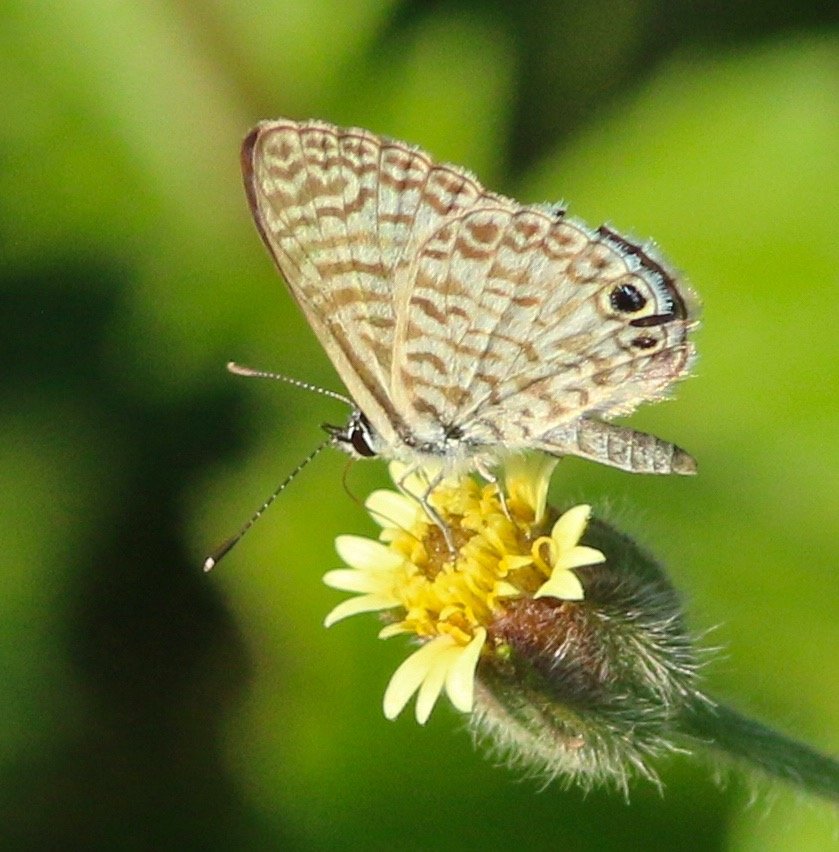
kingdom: Animalia
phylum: Arthropoda
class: Insecta
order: Lepidoptera
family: Lycaenidae
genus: Leptotes
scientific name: Leptotes cassius
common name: Cassius Blue
